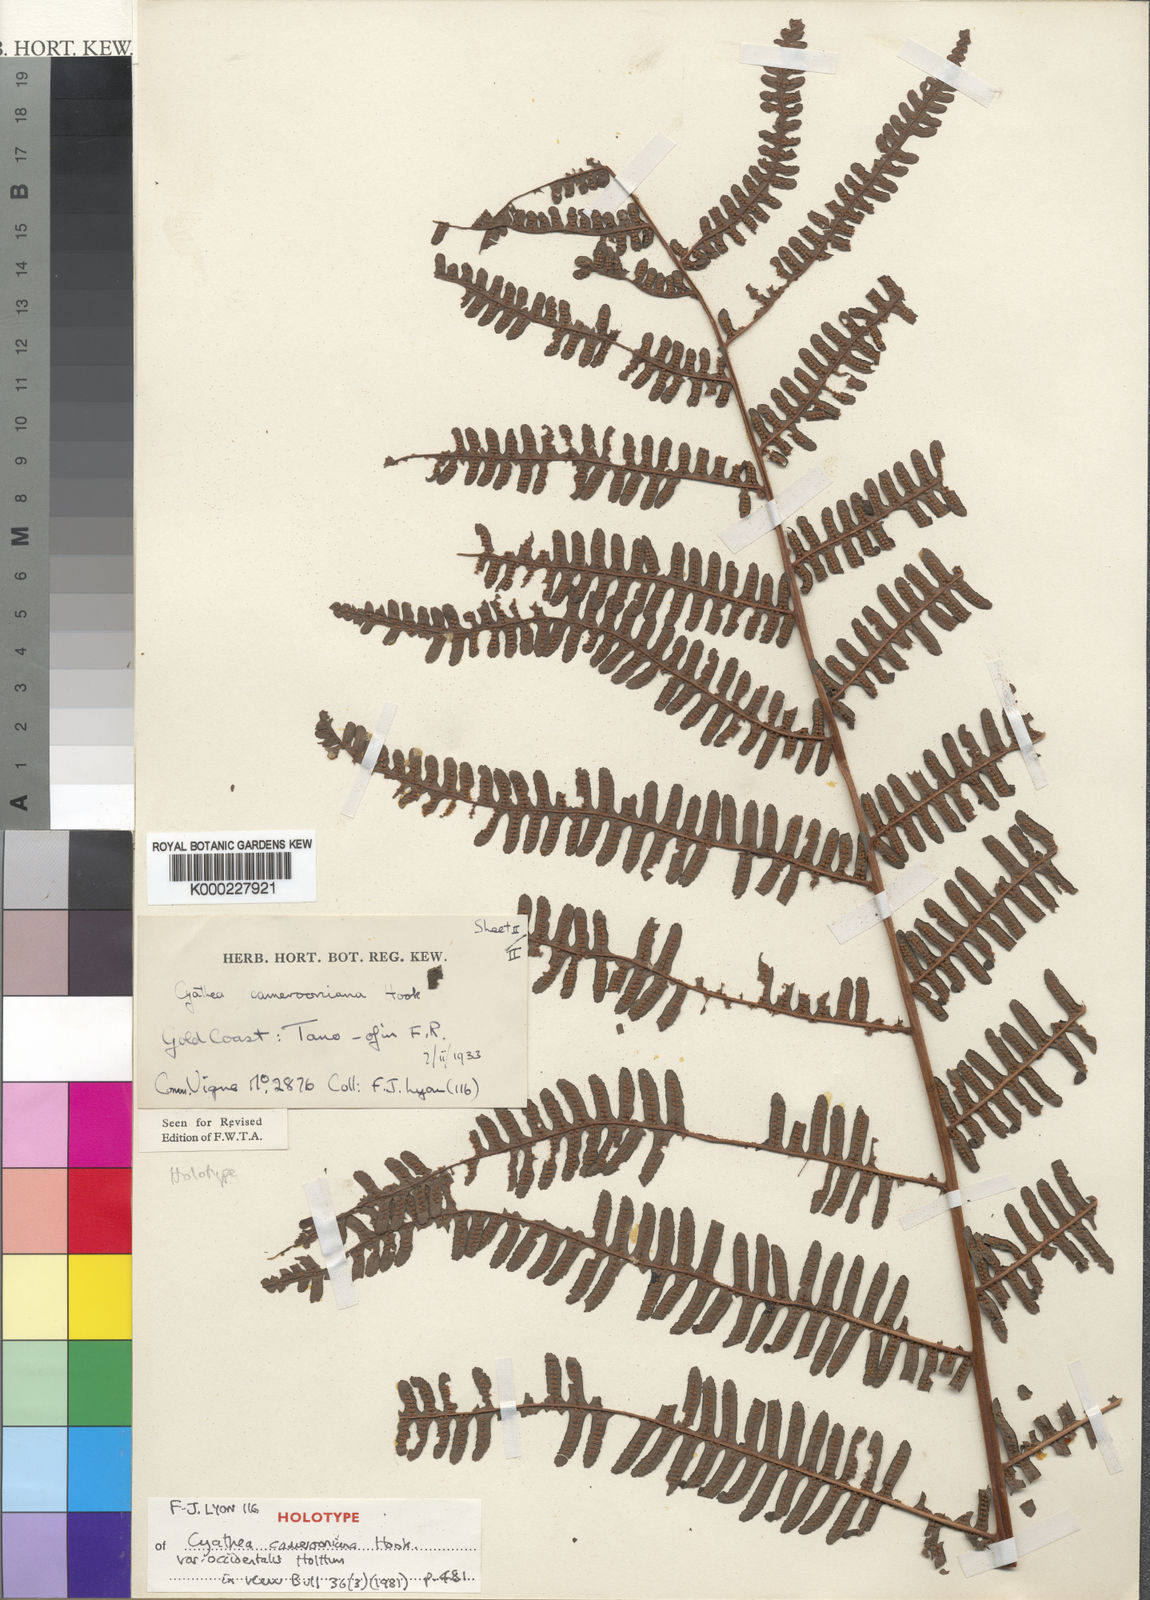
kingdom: Plantae
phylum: Tracheophyta
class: Polypodiopsida
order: Cyatheales
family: Cyatheaceae
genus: Alsophila
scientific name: Alsophila camerooniana
